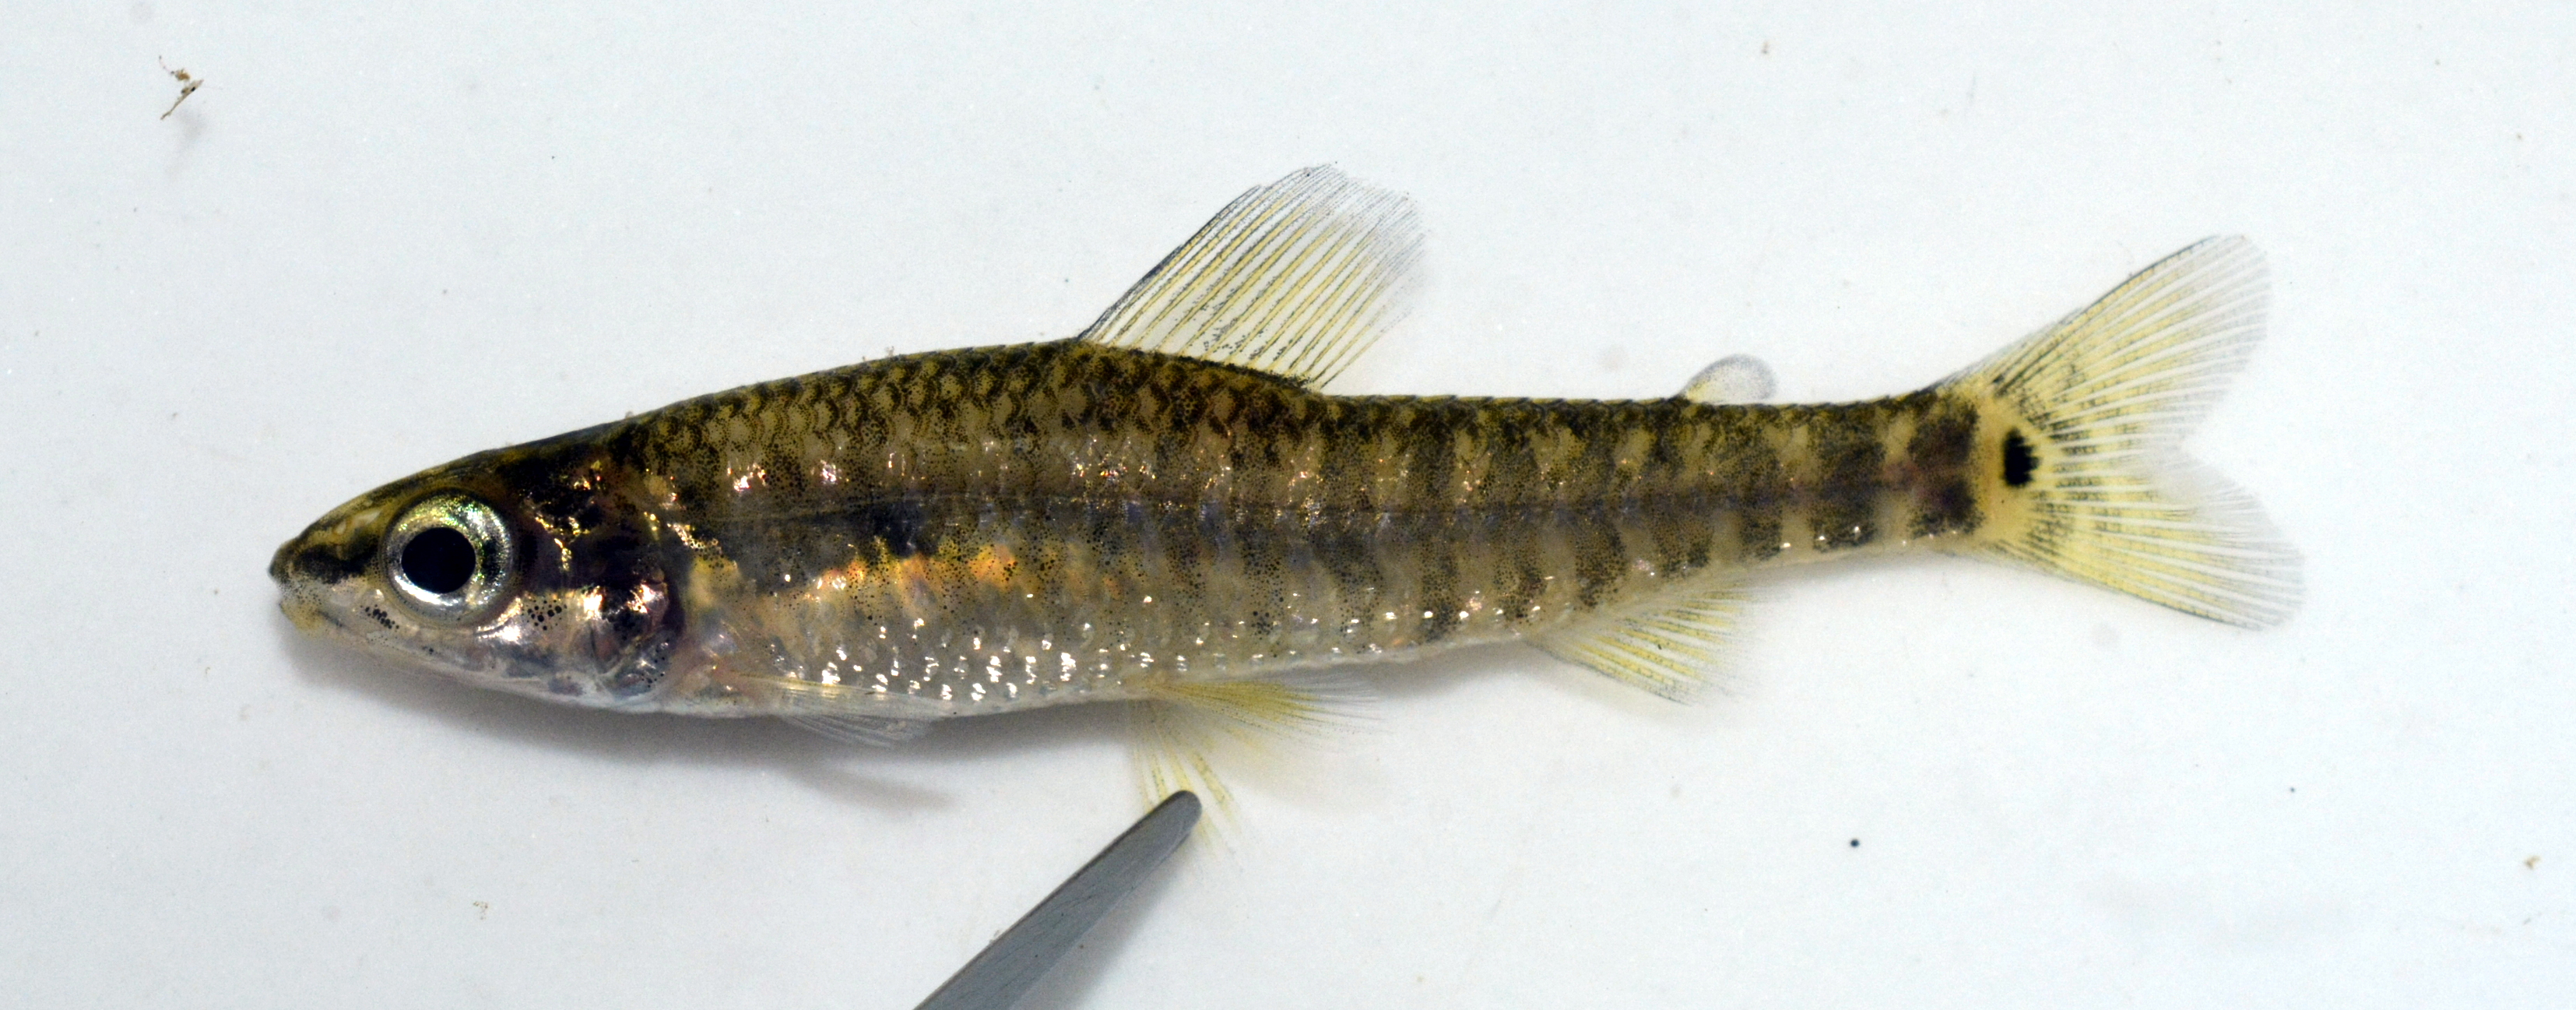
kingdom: Animalia
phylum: Chordata
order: Characiformes
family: Distichodontidae
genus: Nannocharax
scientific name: Nannocharax multifasciatus
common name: Multibar citharine
